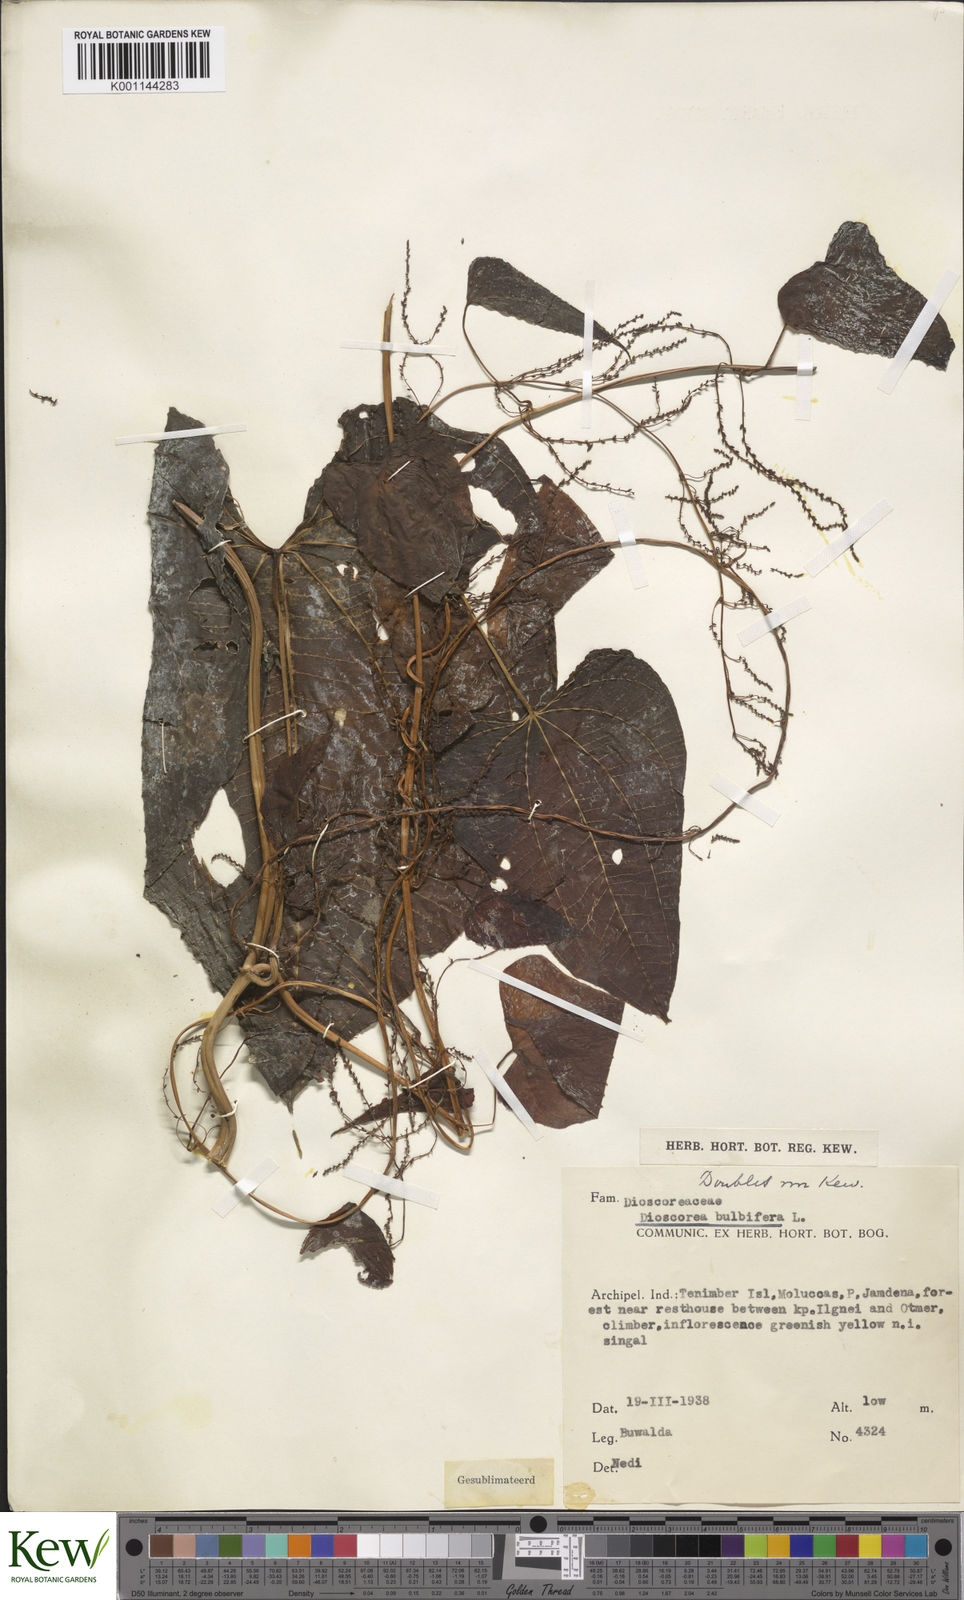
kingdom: Plantae
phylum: Tracheophyta
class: Liliopsida
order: Dioscoreales
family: Dioscoreaceae
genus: Dioscorea
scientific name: Dioscorea bulbifera
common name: Air yam
